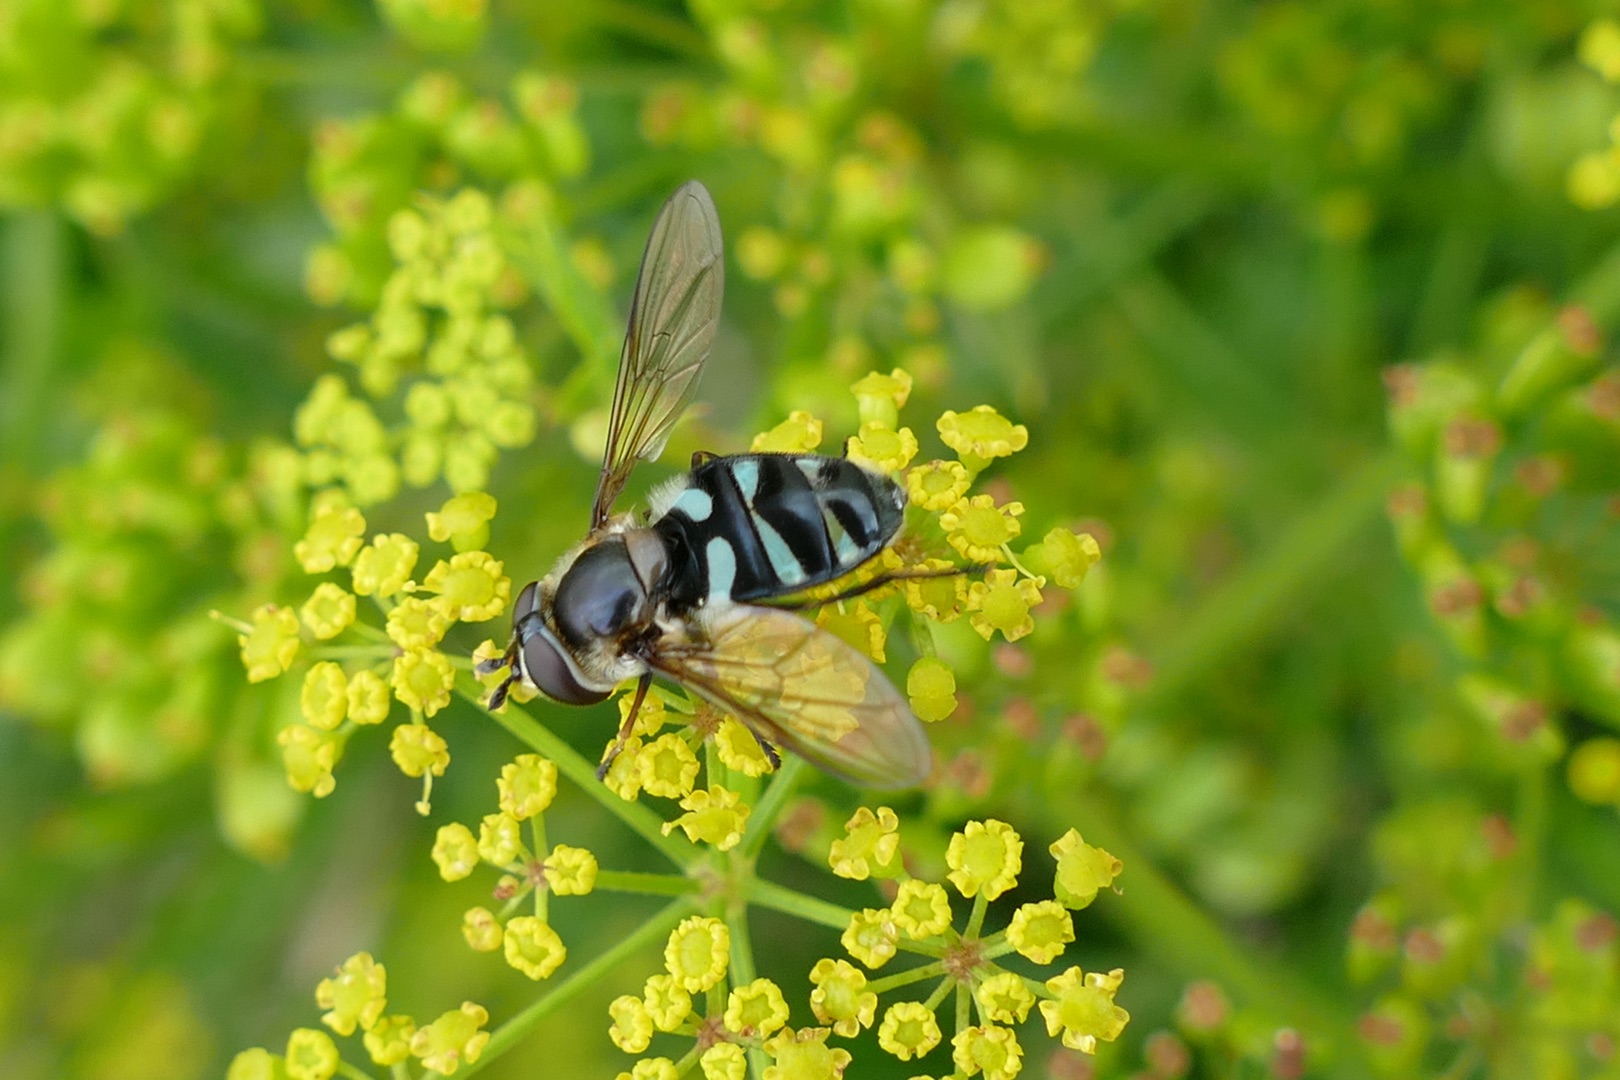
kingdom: Animalia
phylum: Arthropoda
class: Insecta
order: Diptera
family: Syrphidae
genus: Didea
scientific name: Didea alneti
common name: Grøn buesvirreflue
